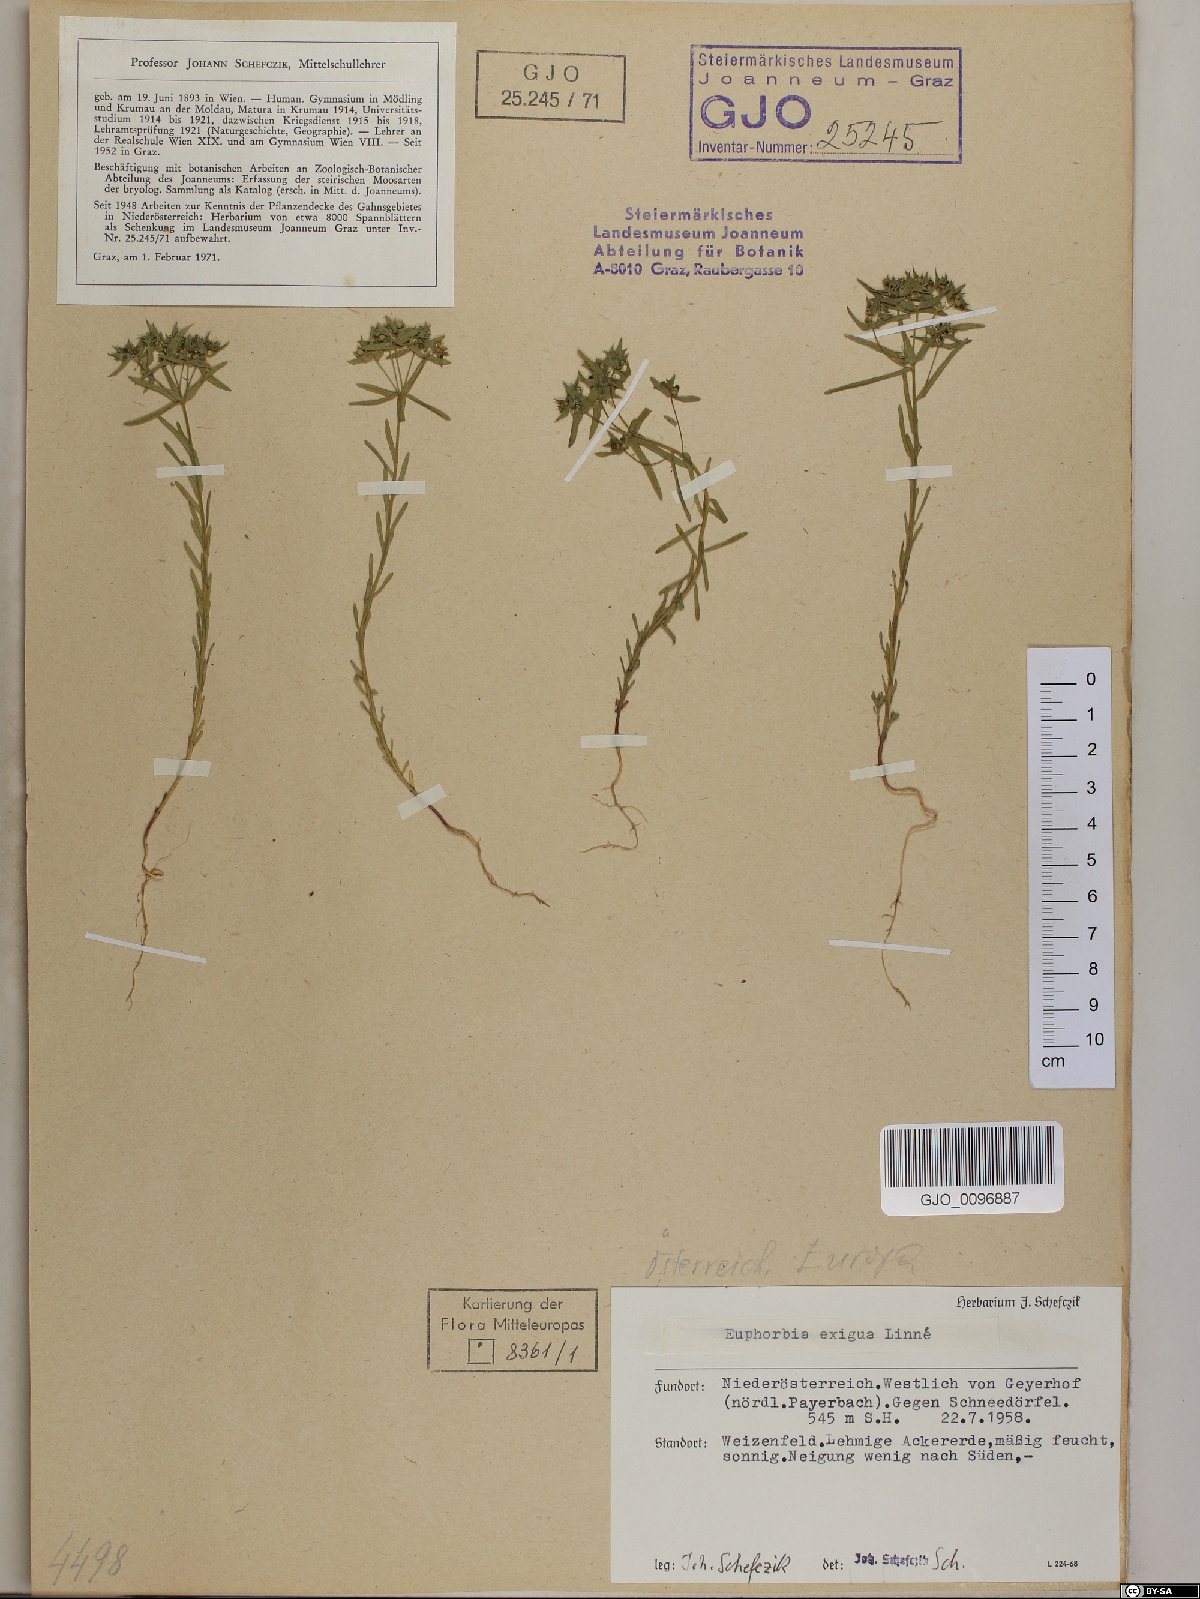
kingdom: Plantae
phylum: Tracheophyta
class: Magnoliopsida
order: Malpighiales
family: Euphorbiaceae
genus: Euphorbia
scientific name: Euphorbia exigua
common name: Dwarf spurge
